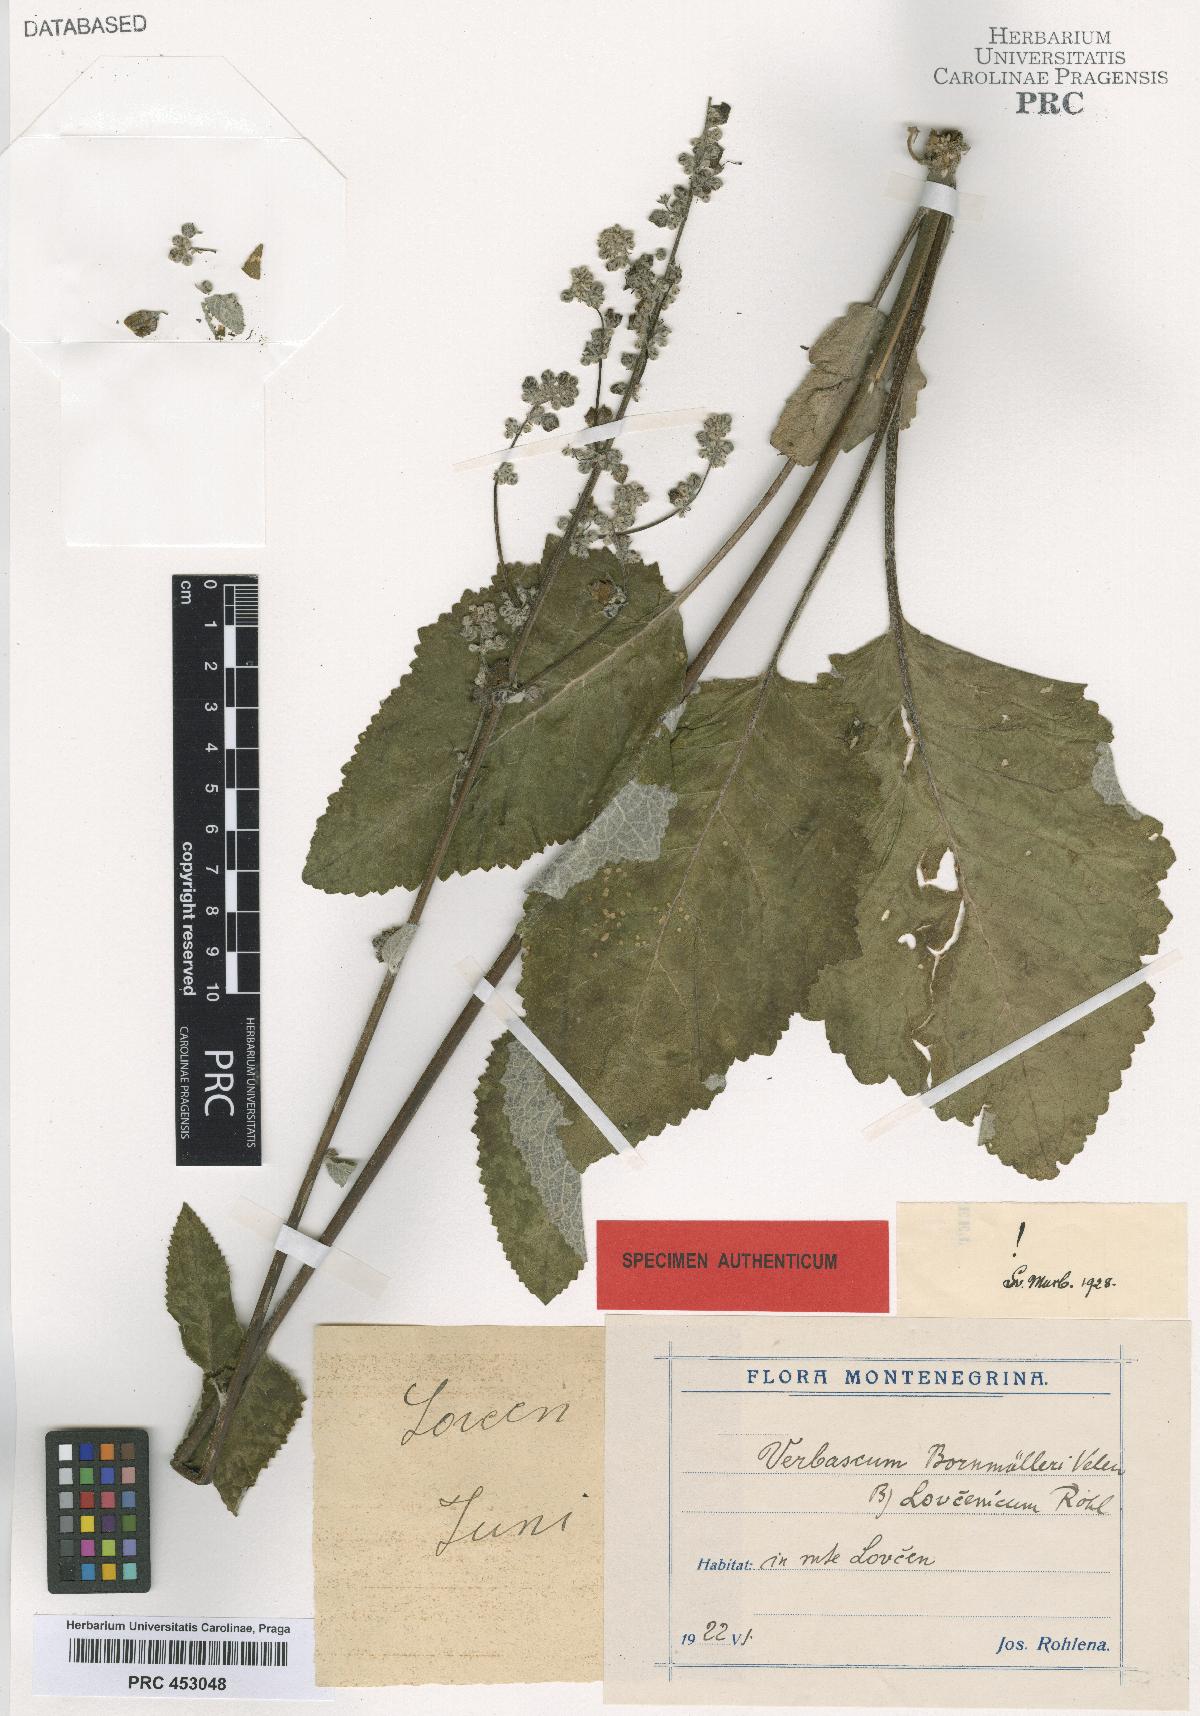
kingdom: Plantae
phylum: Tracheophyta
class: Magnoliopsida
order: Lamiales
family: Scrophulariaceae
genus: Verbascum
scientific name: Verbascum nigrum
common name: Dark mullein
